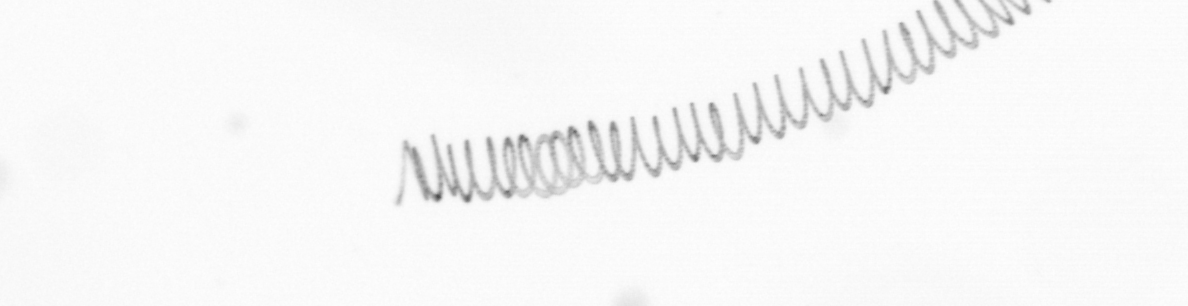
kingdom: Chromista
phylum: Ochrophyta
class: Bacillariophyceae
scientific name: Bacillariophyceae
